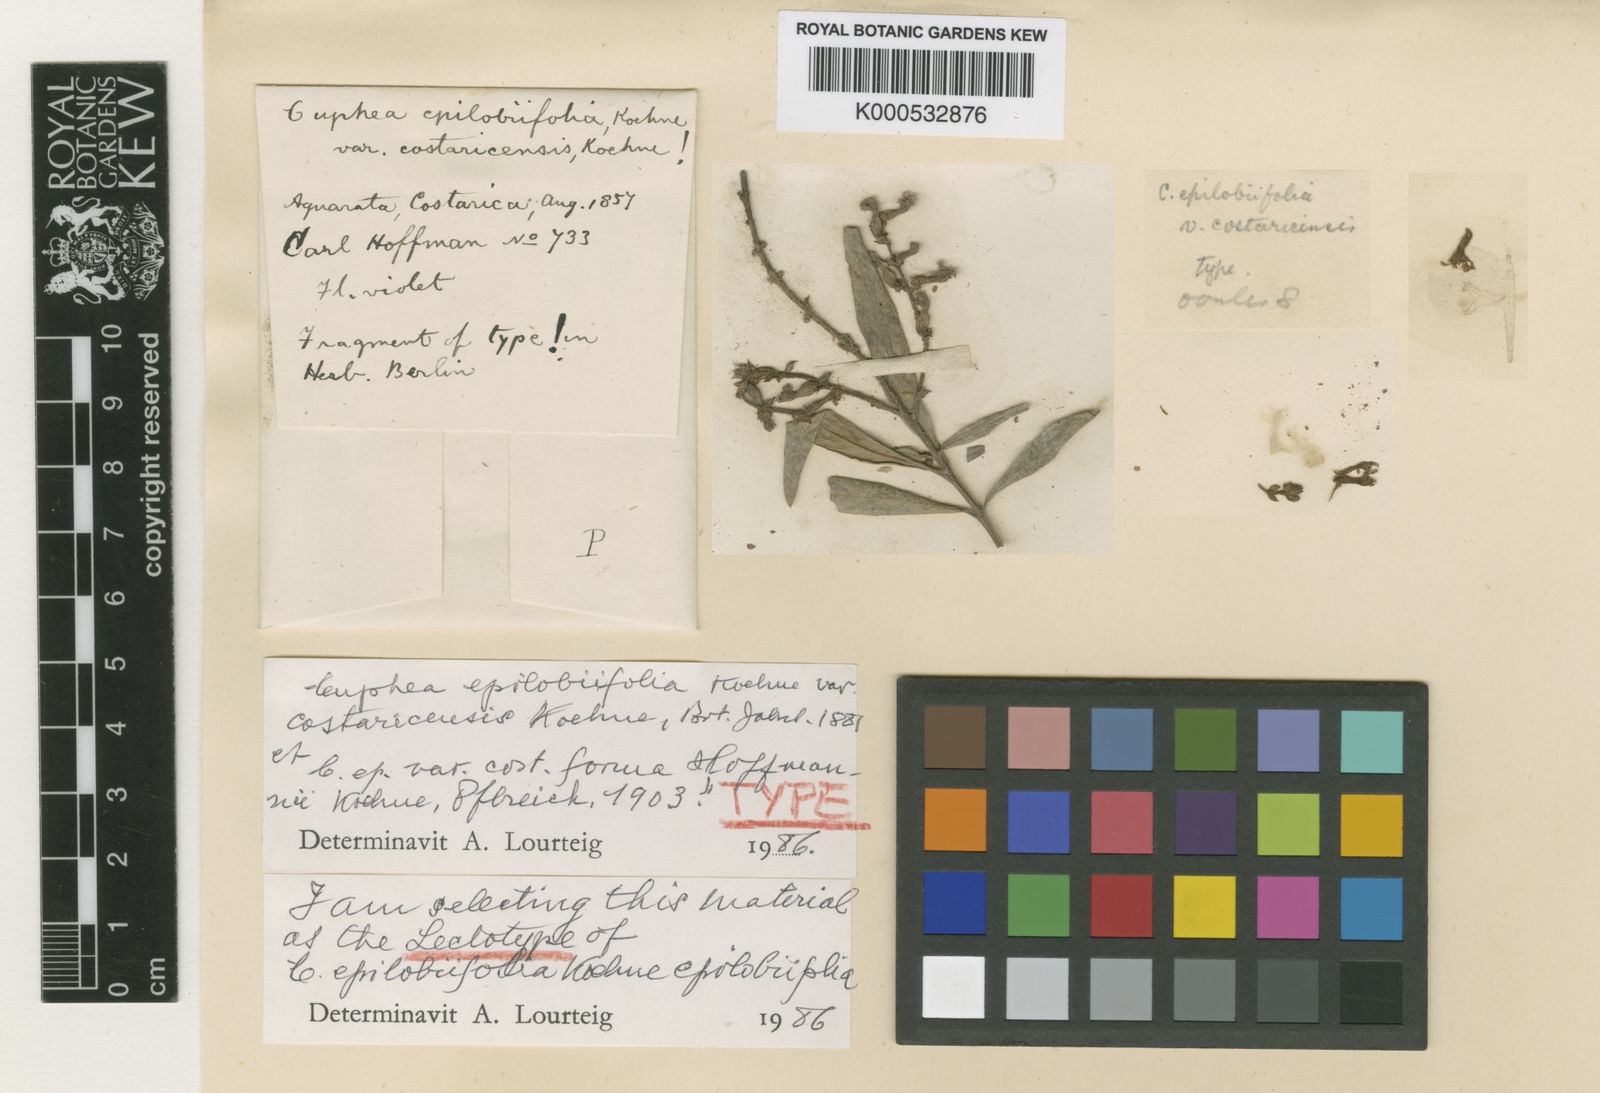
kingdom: Plantae
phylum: Tracheophyta
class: Magnoliopsida
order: Myrtales
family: Lythraceae
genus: Cuphea
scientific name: Cuphea epilobiifolia
